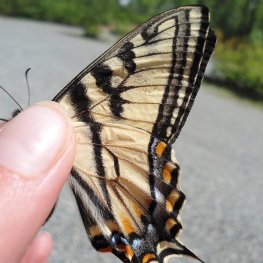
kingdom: Animalia
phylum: Arthropoda
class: Insecta
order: Lepidoptera
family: Papilionidae
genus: Pterourus
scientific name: Pterourus canadensis
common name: Canadian Tiger Swallowtail
